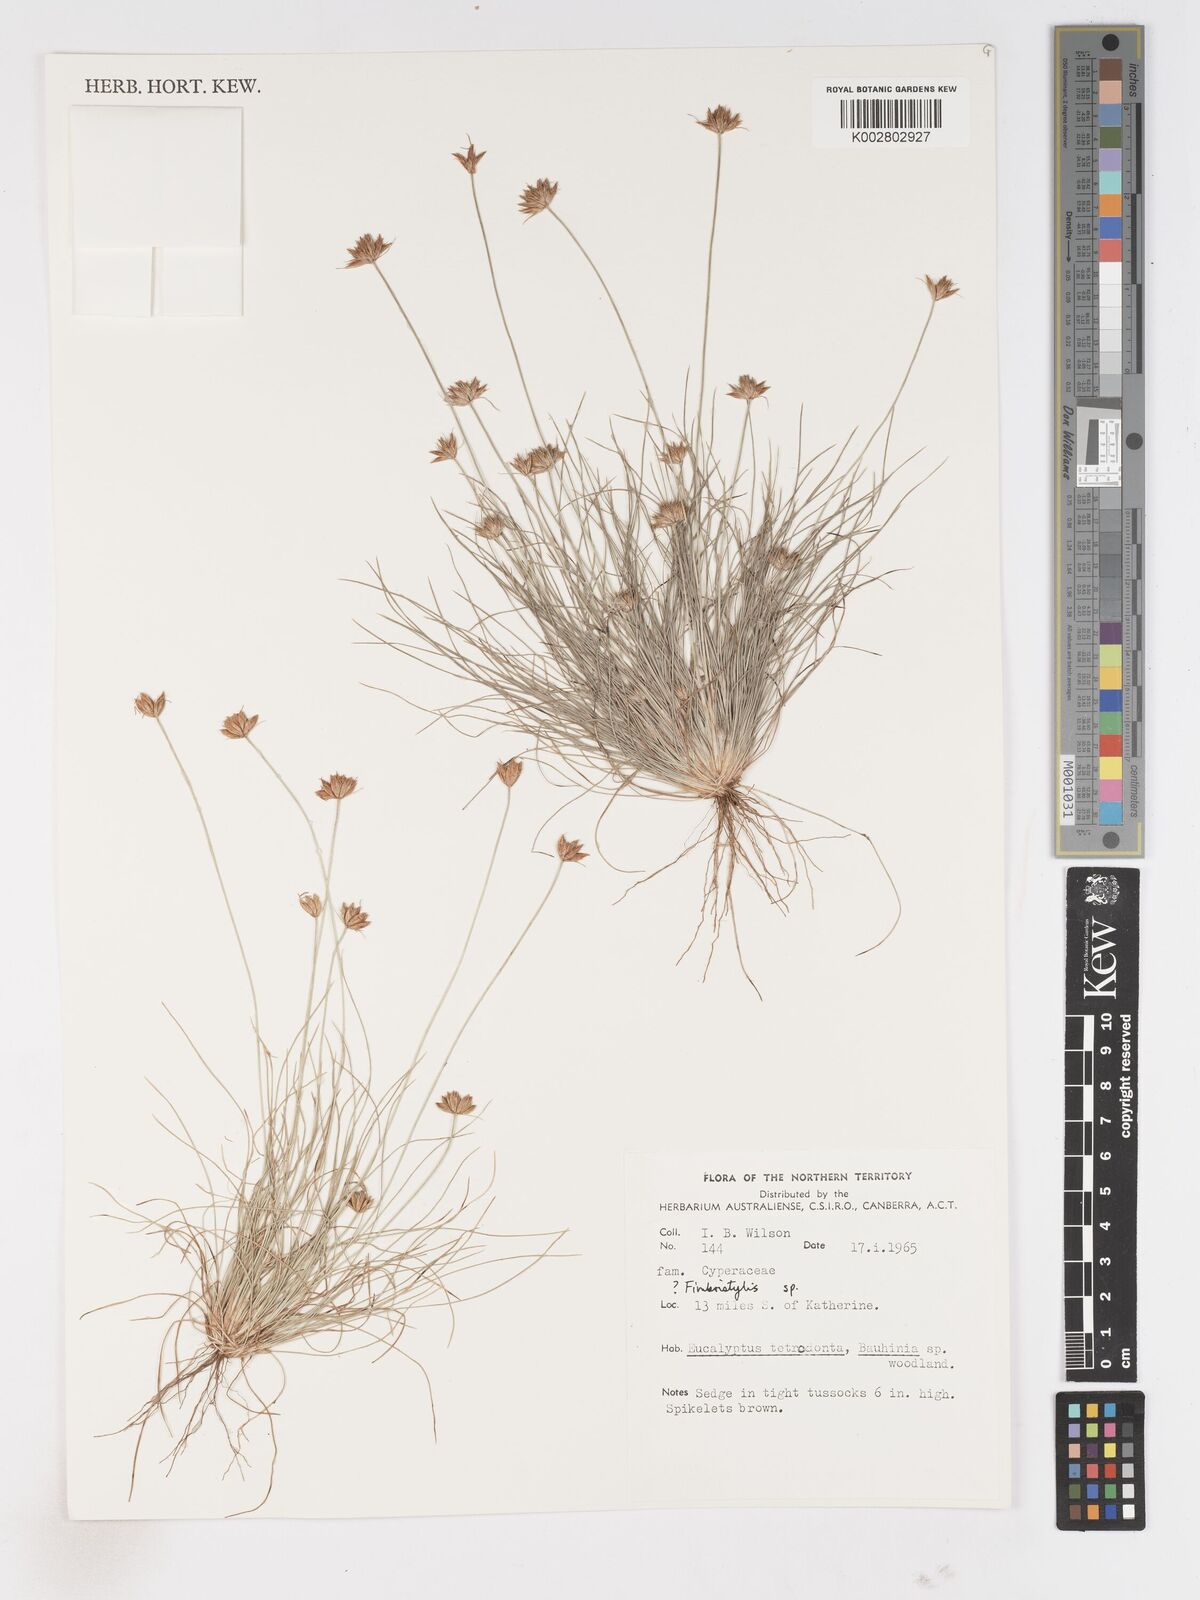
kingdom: Plantae
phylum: Tracheophyta
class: Liliopsida
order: Poales
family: Cyperaceae
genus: Fimbristylis
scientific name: Fimbristylis
